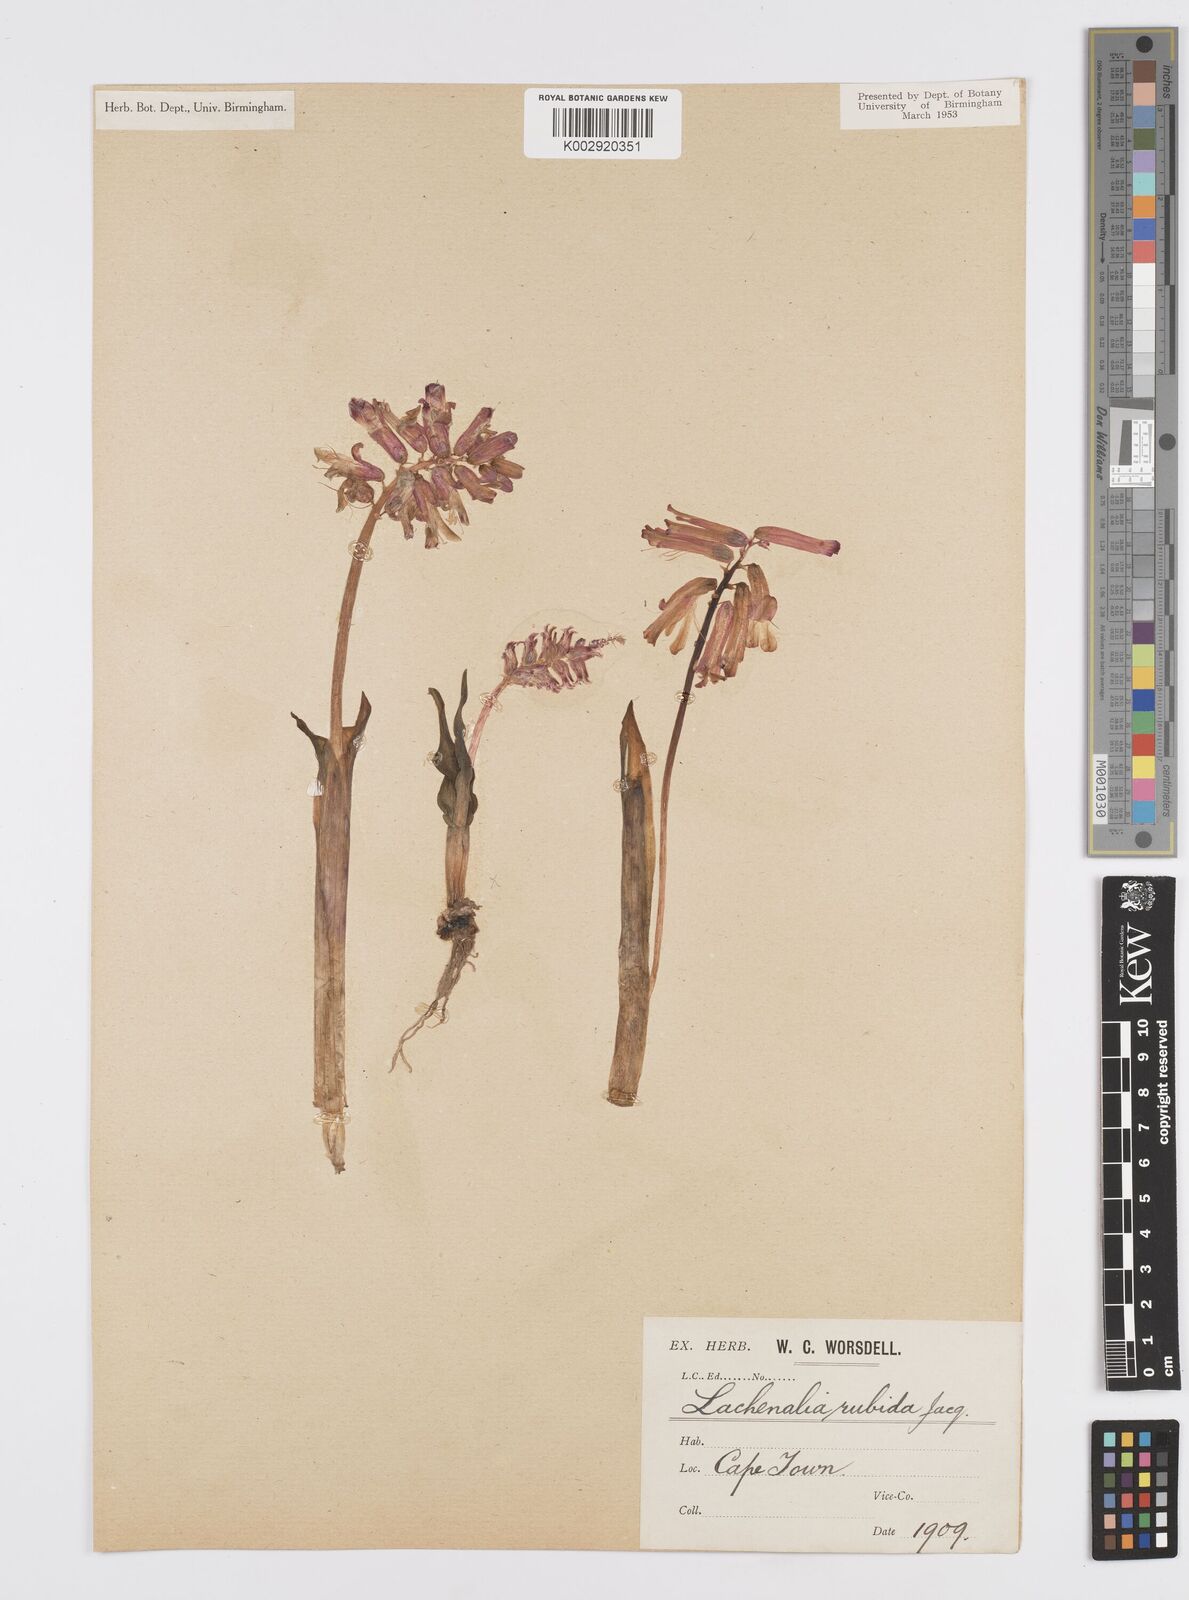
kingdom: Plantae
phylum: Tracheophyta
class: Liliopsida
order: Asparagales
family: Asparagaceae
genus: Lachenalia
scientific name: Lachenalia punctata
